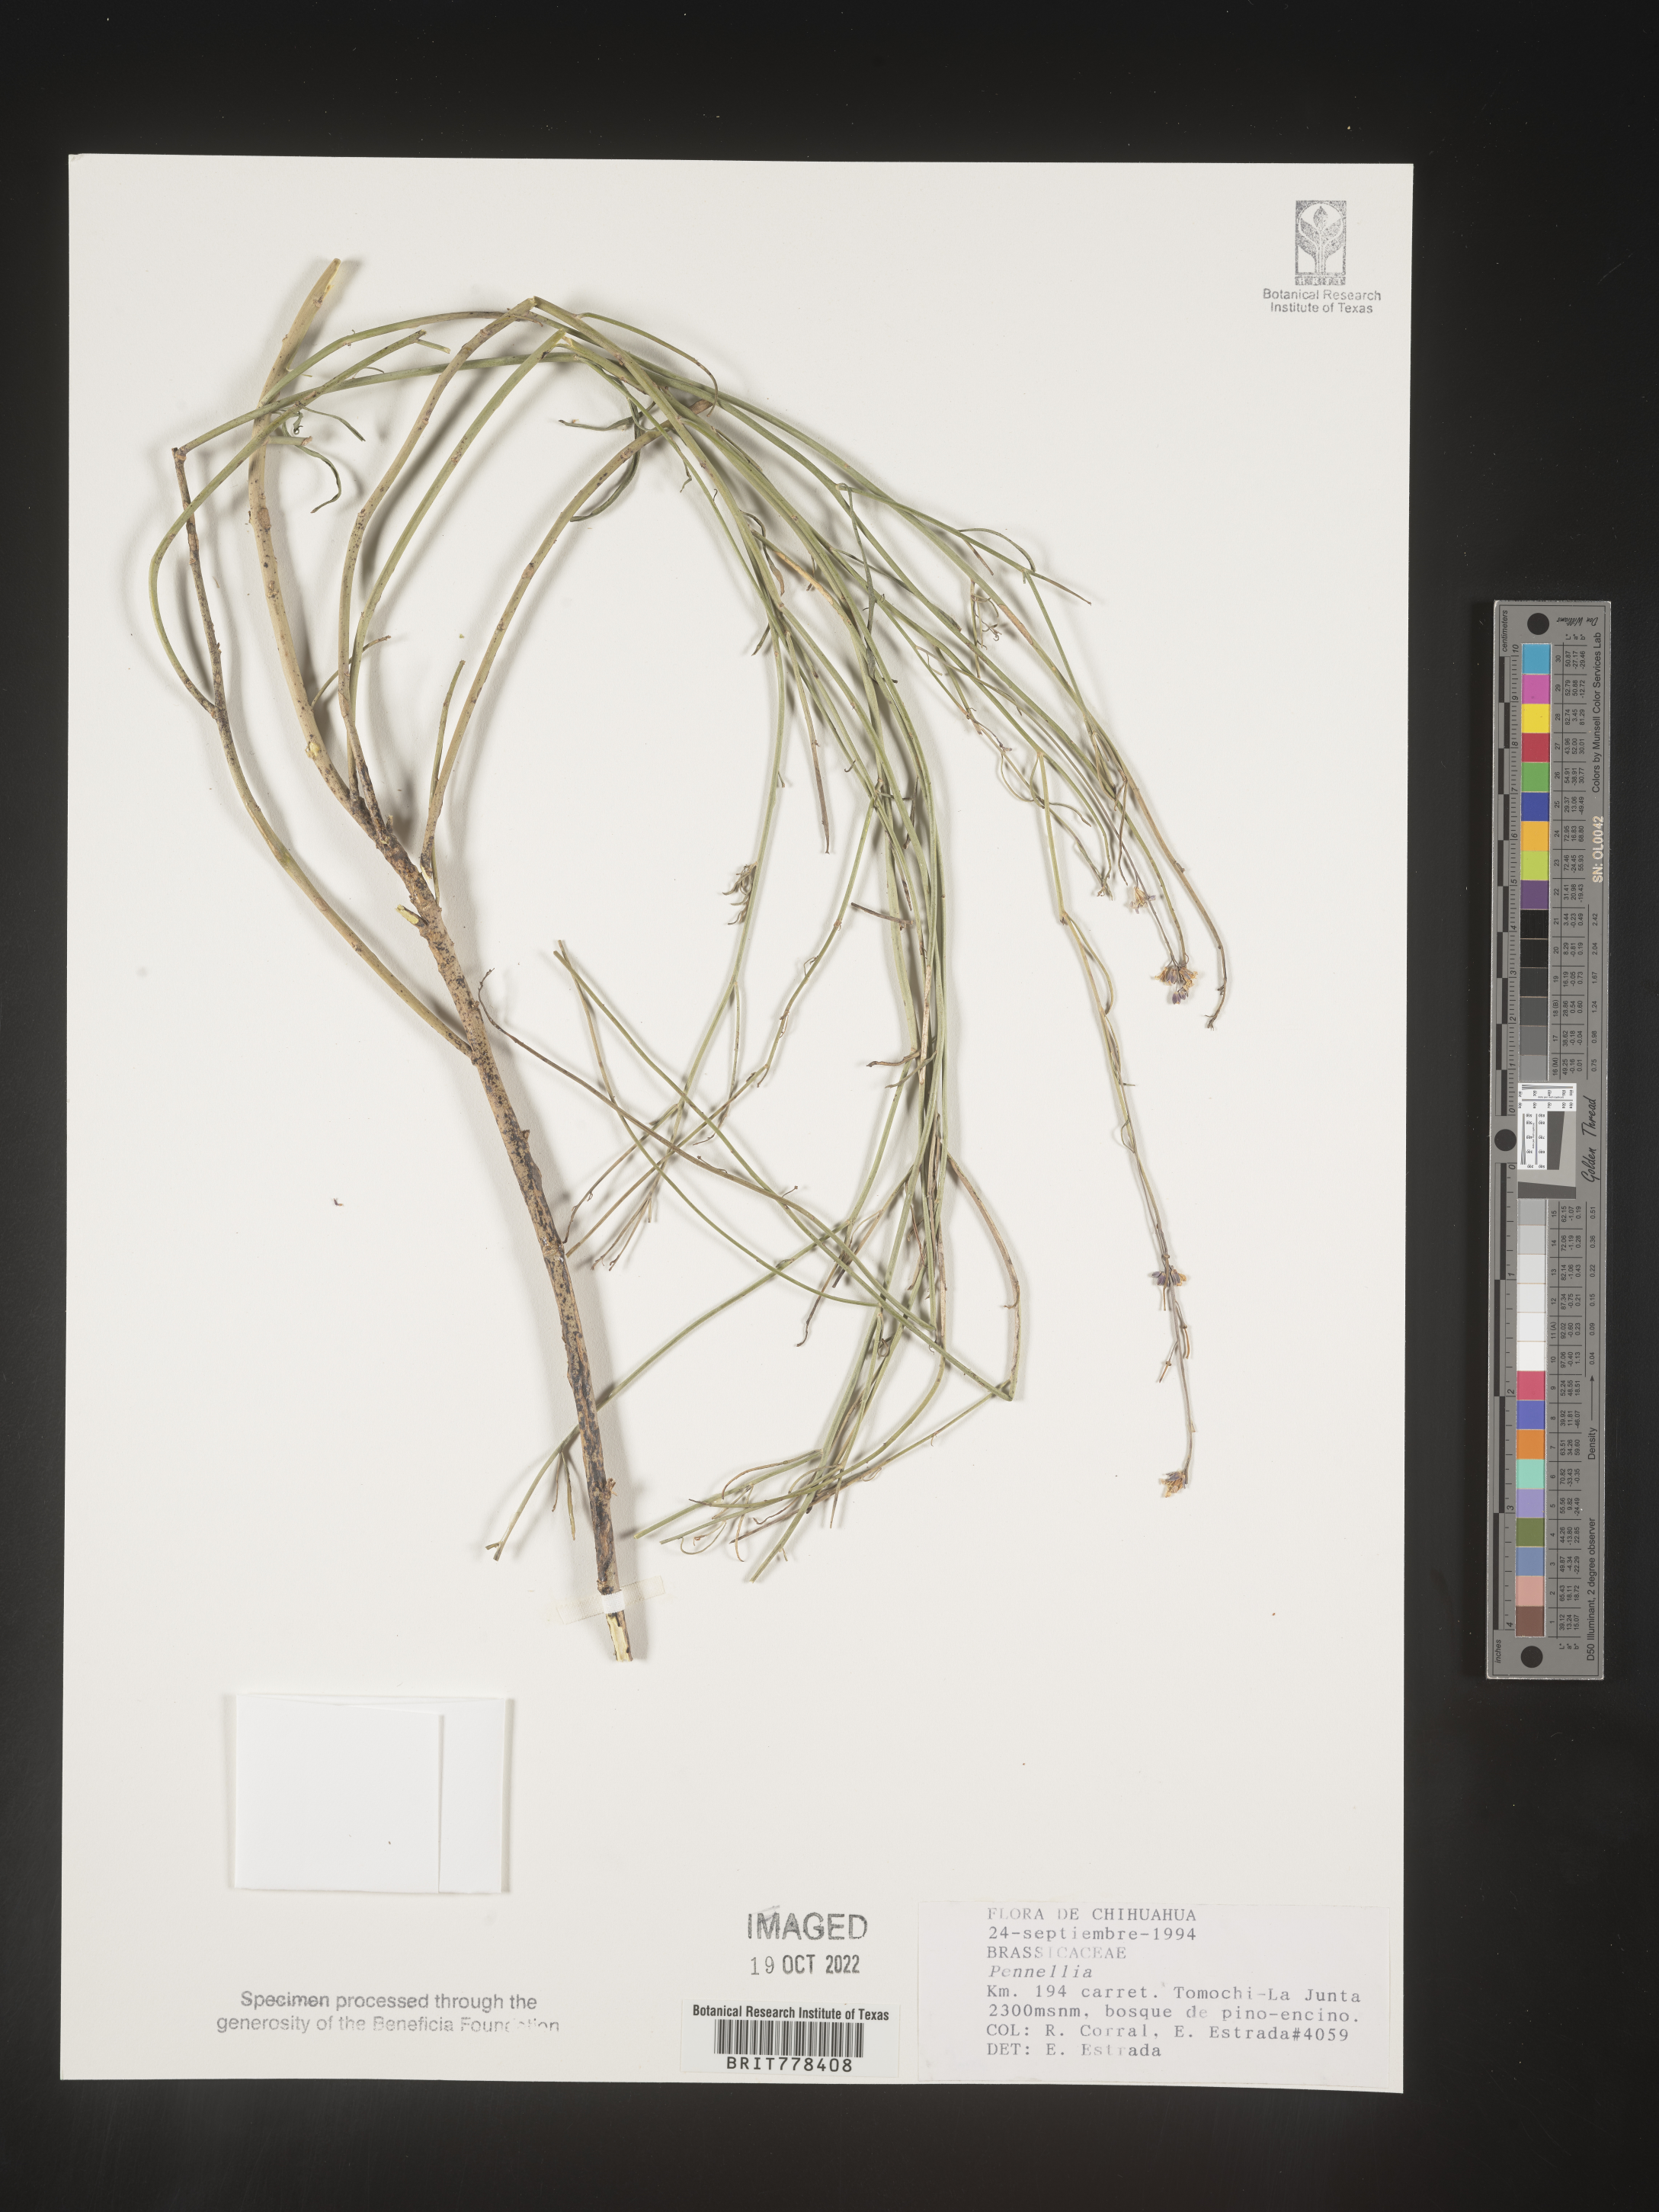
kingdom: Plantae
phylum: Tracheophyta
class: Magnoliopsida
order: Brassicales
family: Brassicaceae
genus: Pennellia
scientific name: Pennellia
